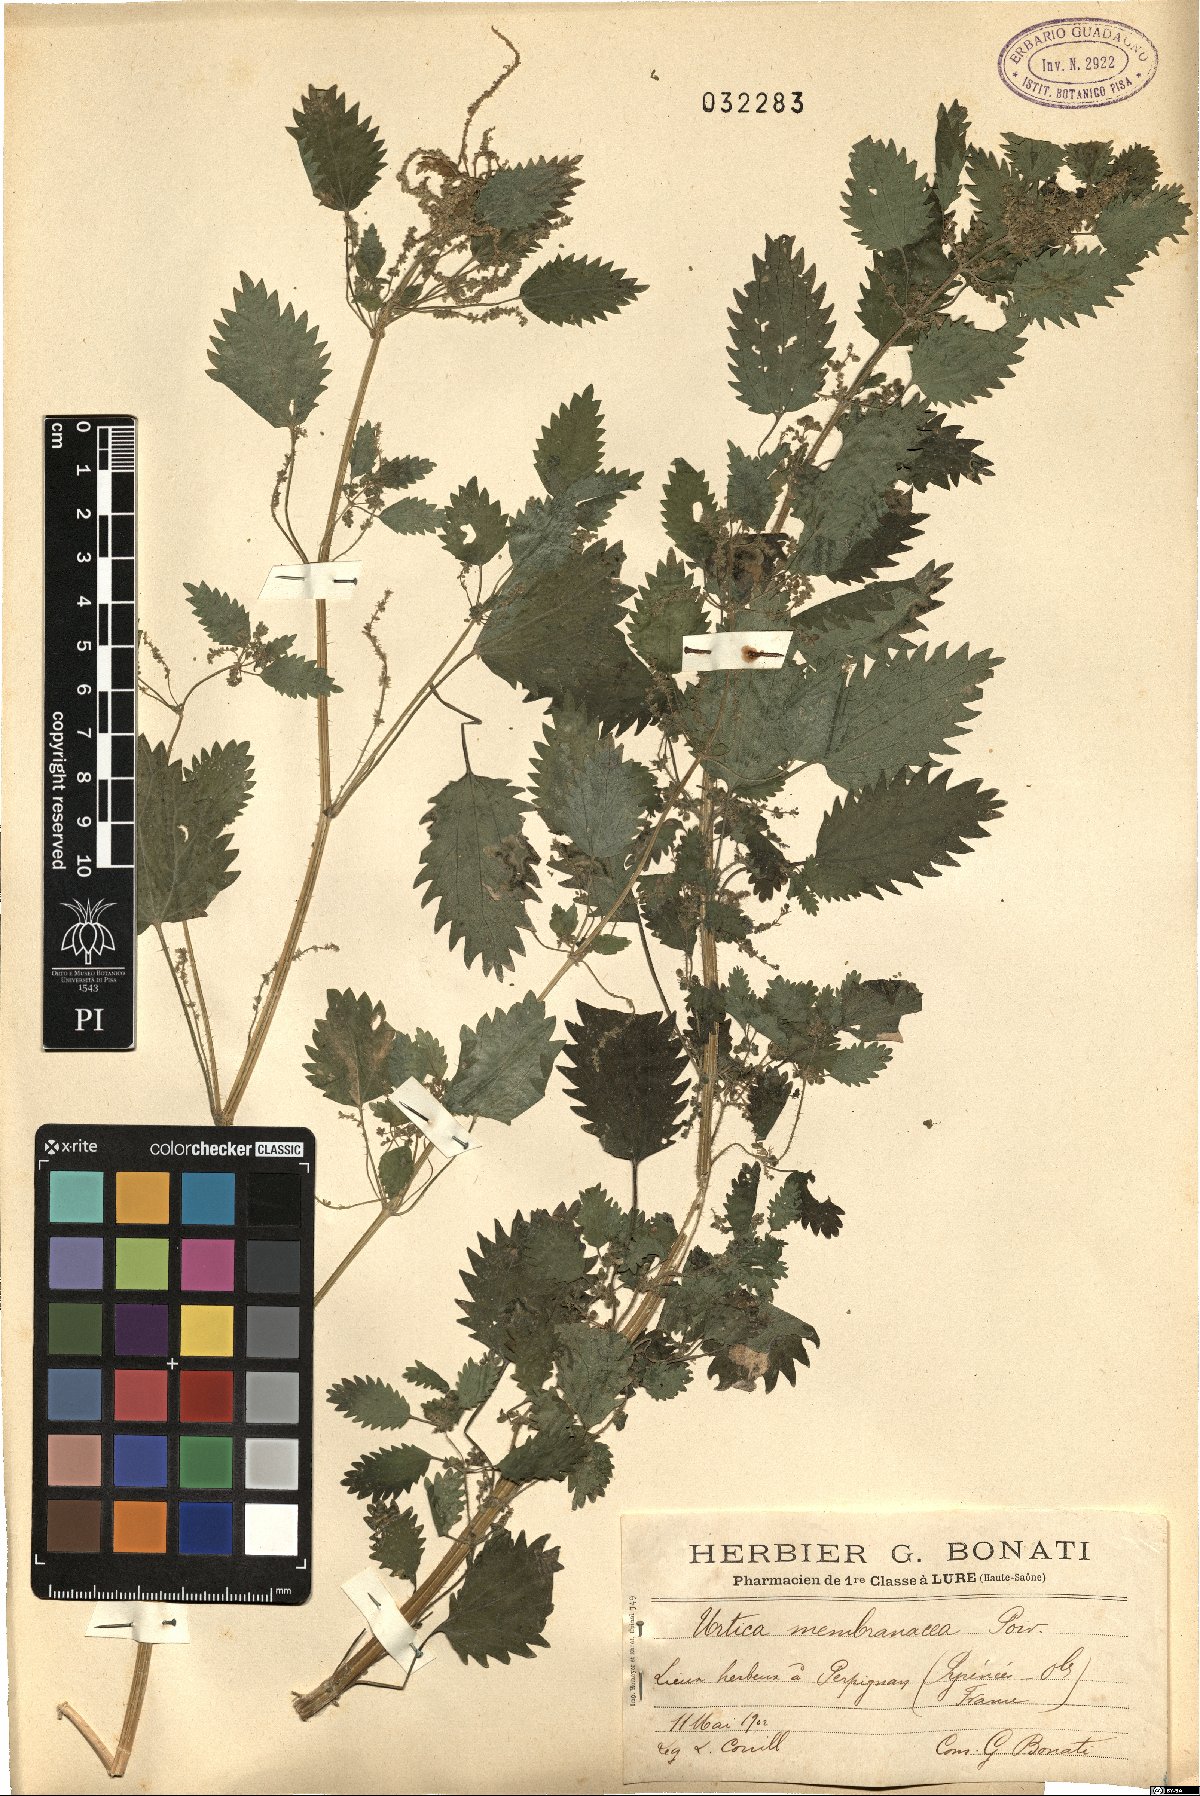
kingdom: Plantae
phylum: Tracheophyta
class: Magnoliopsida
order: Rosales
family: Urticaceae
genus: Urtica
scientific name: Urtica membranacea
